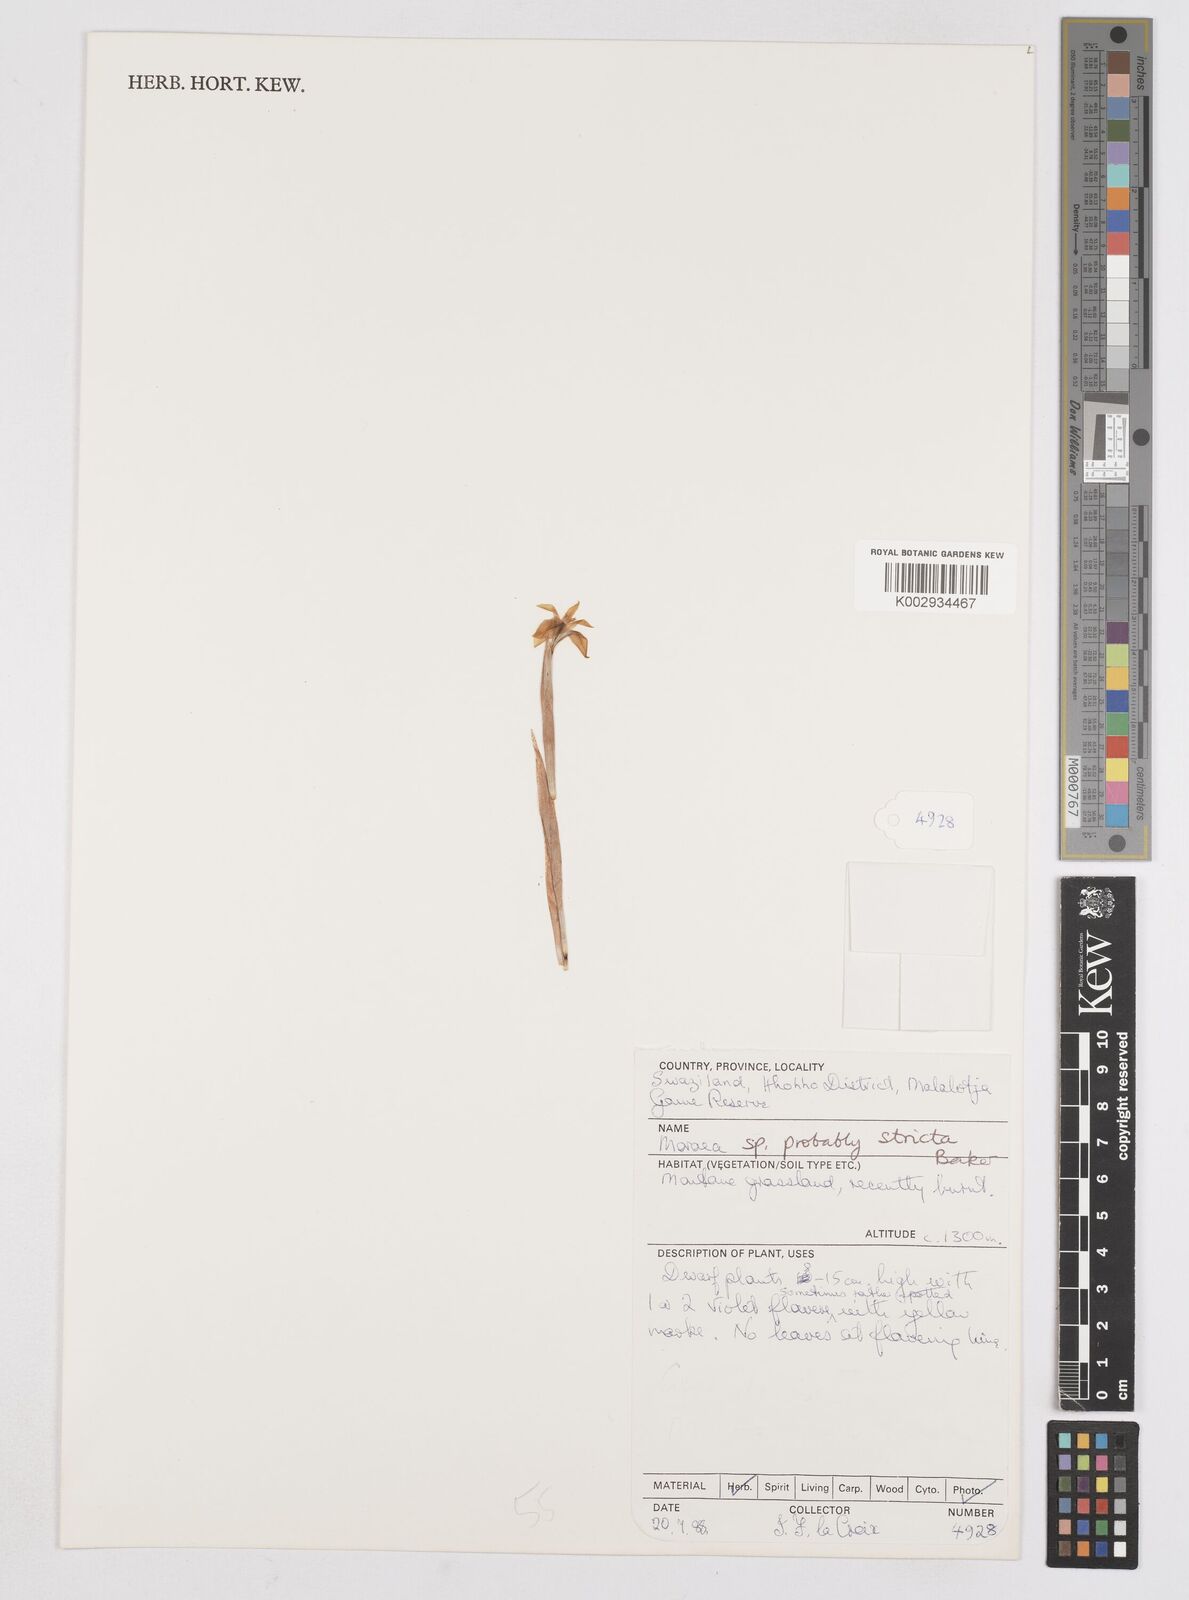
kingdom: Plantae
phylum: Tracheophyta
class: Liliopsida
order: Asparagales
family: Iridaceae
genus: Moraea
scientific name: Moraea stricta
